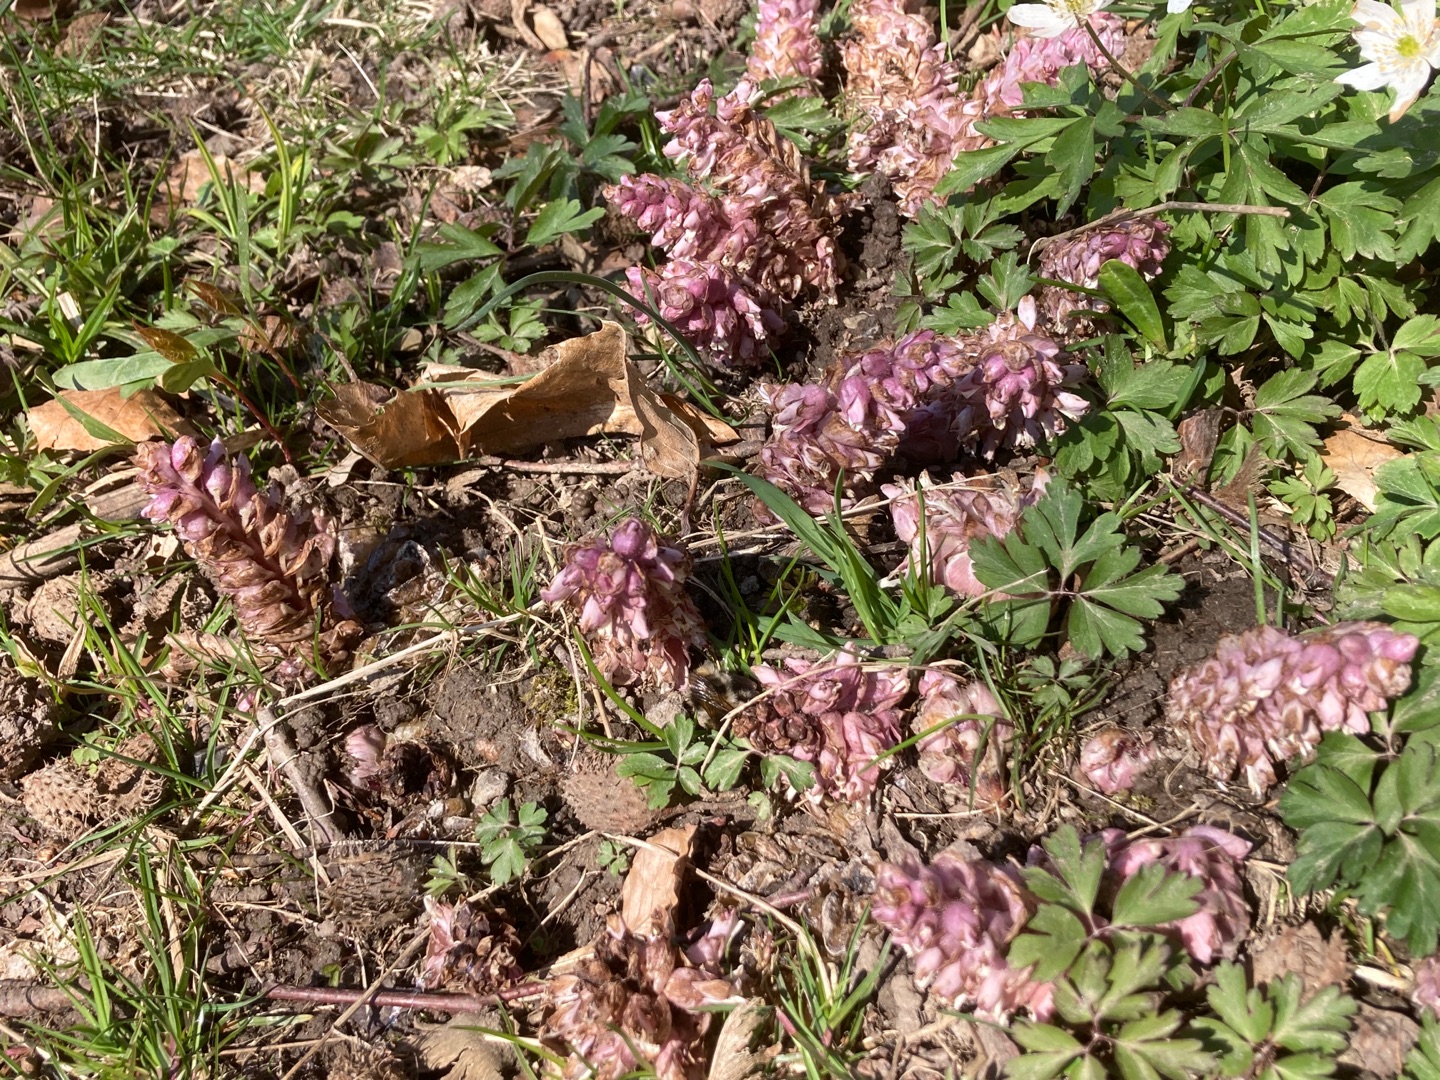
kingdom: Plantae
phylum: Tracheophyta
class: Magnoliopsida
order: Lamiales
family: Orobanchaceae
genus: Lathraea
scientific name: Lathraea squamaria
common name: Skælrod
